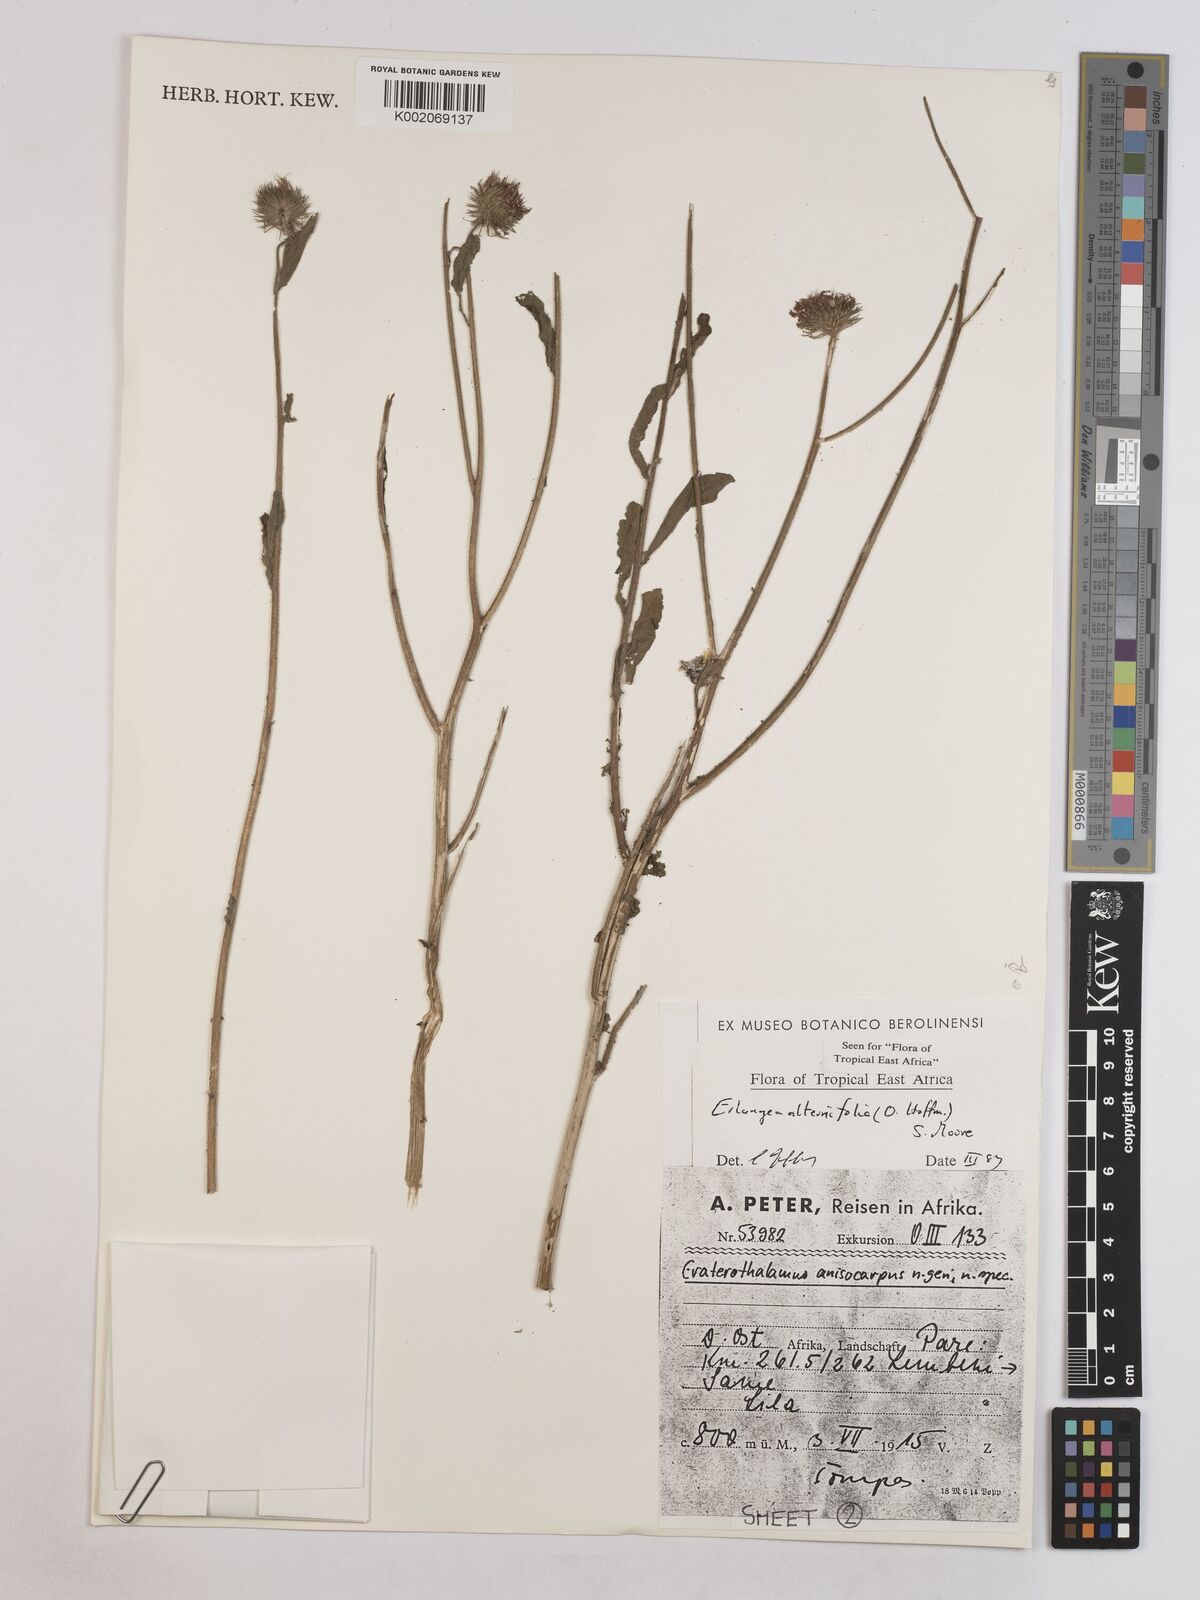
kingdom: Plantae
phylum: Tracheophyta
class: Magnoliopsida
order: Asterales
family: Asteraceae
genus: Erlangea
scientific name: Erlangea alternifolia
